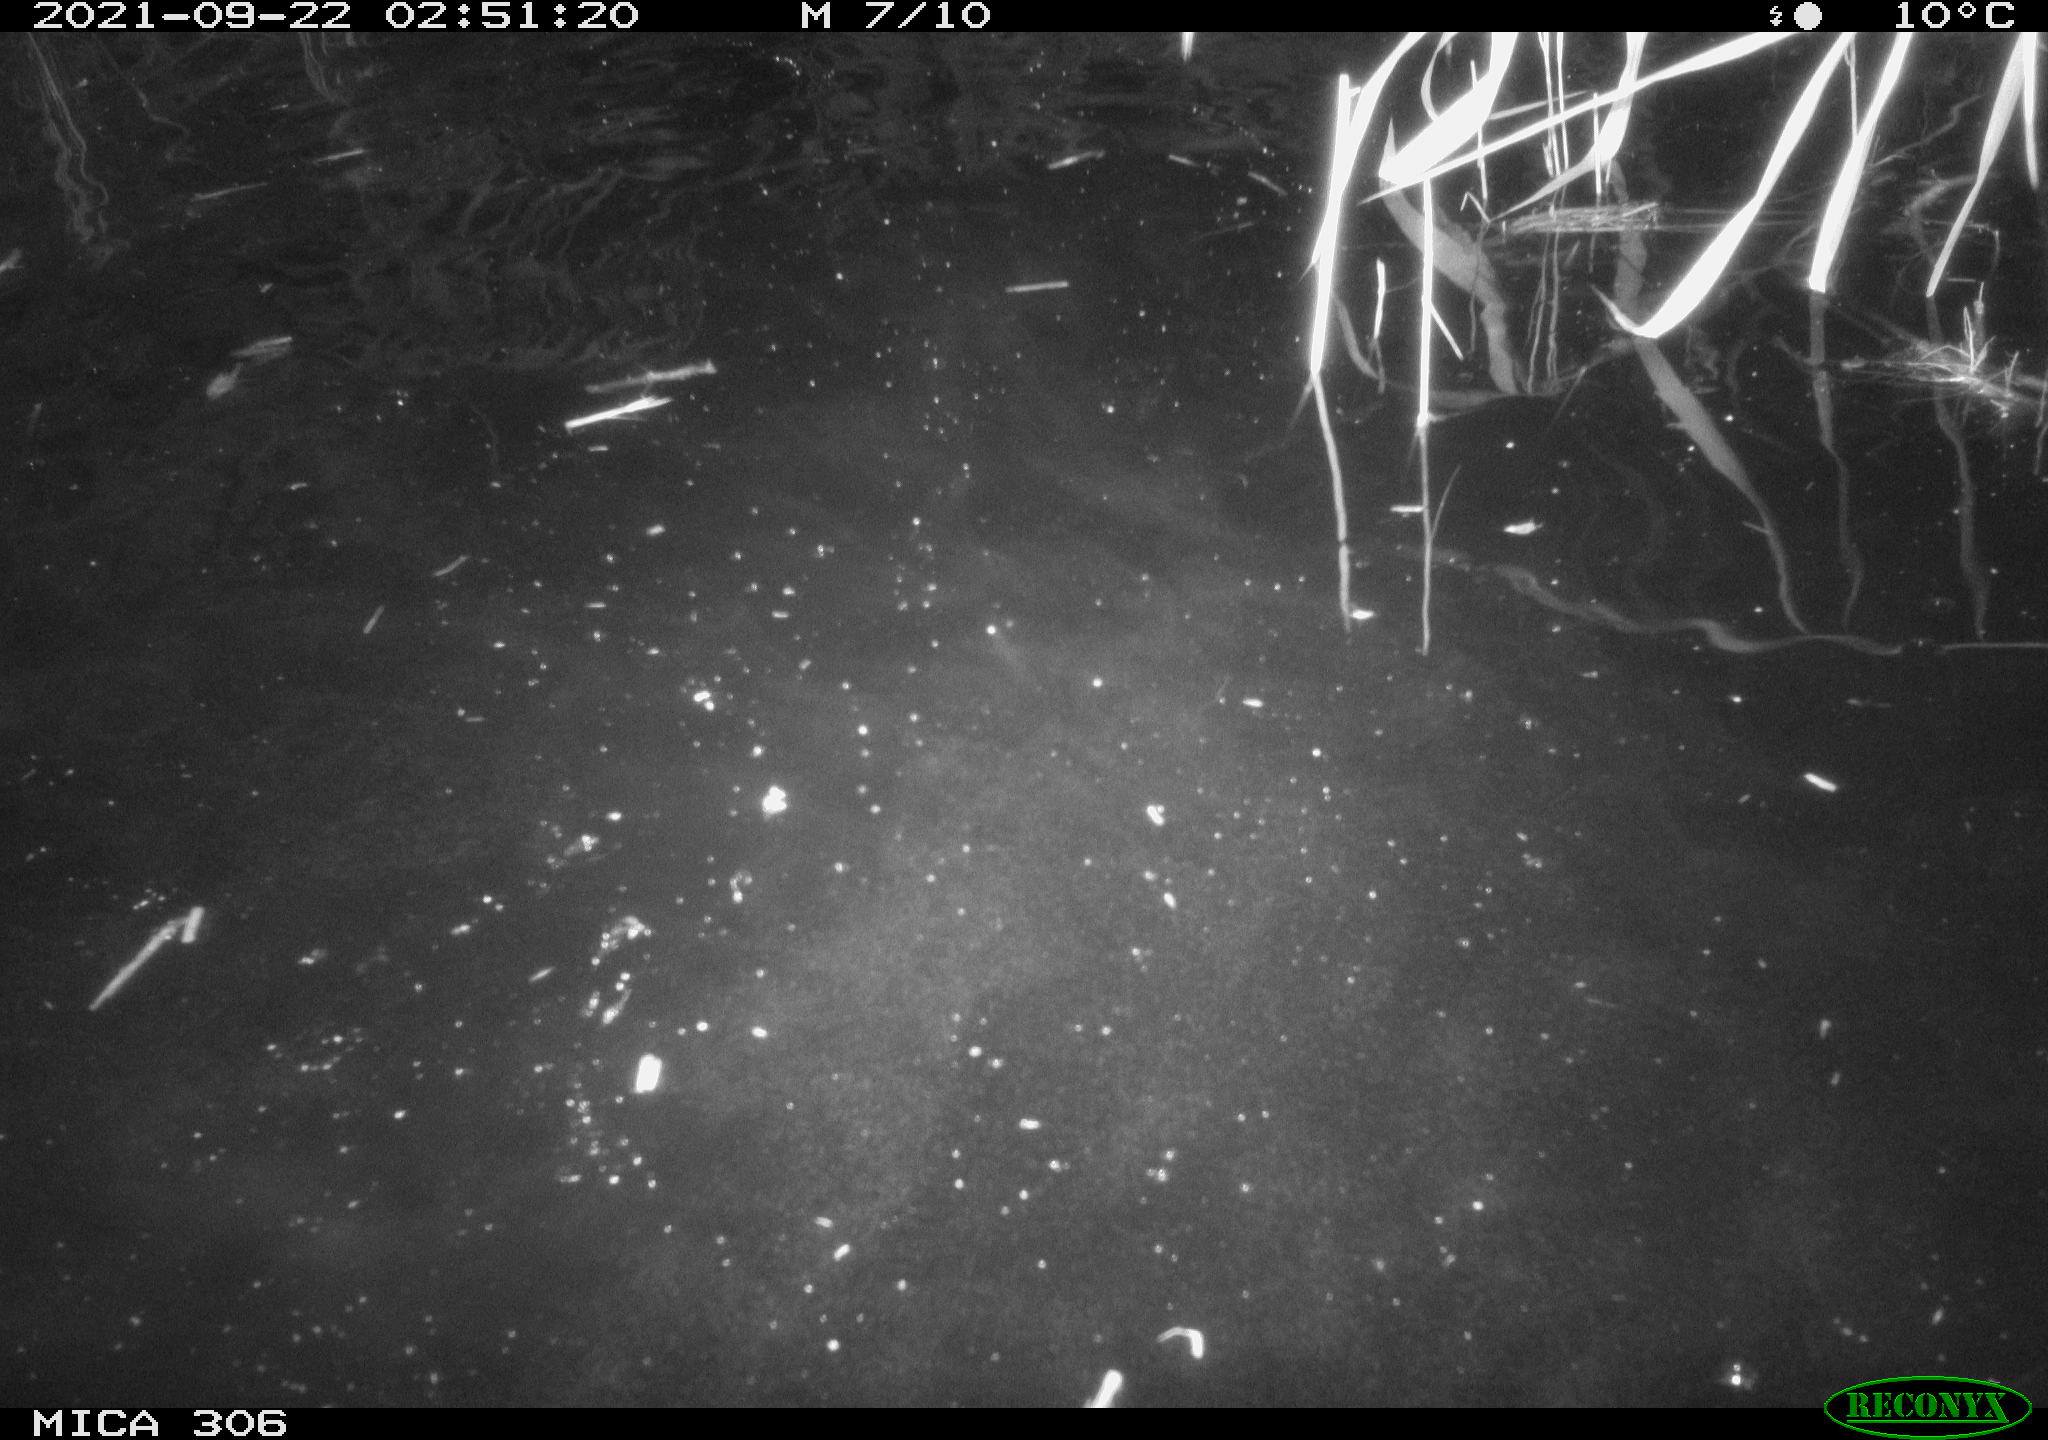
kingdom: Animalia
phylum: Chordata
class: Mammalia
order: Rodentia
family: Cricetidae
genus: Ondatra
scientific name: Ondatra zibethicus
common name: Muskrat
